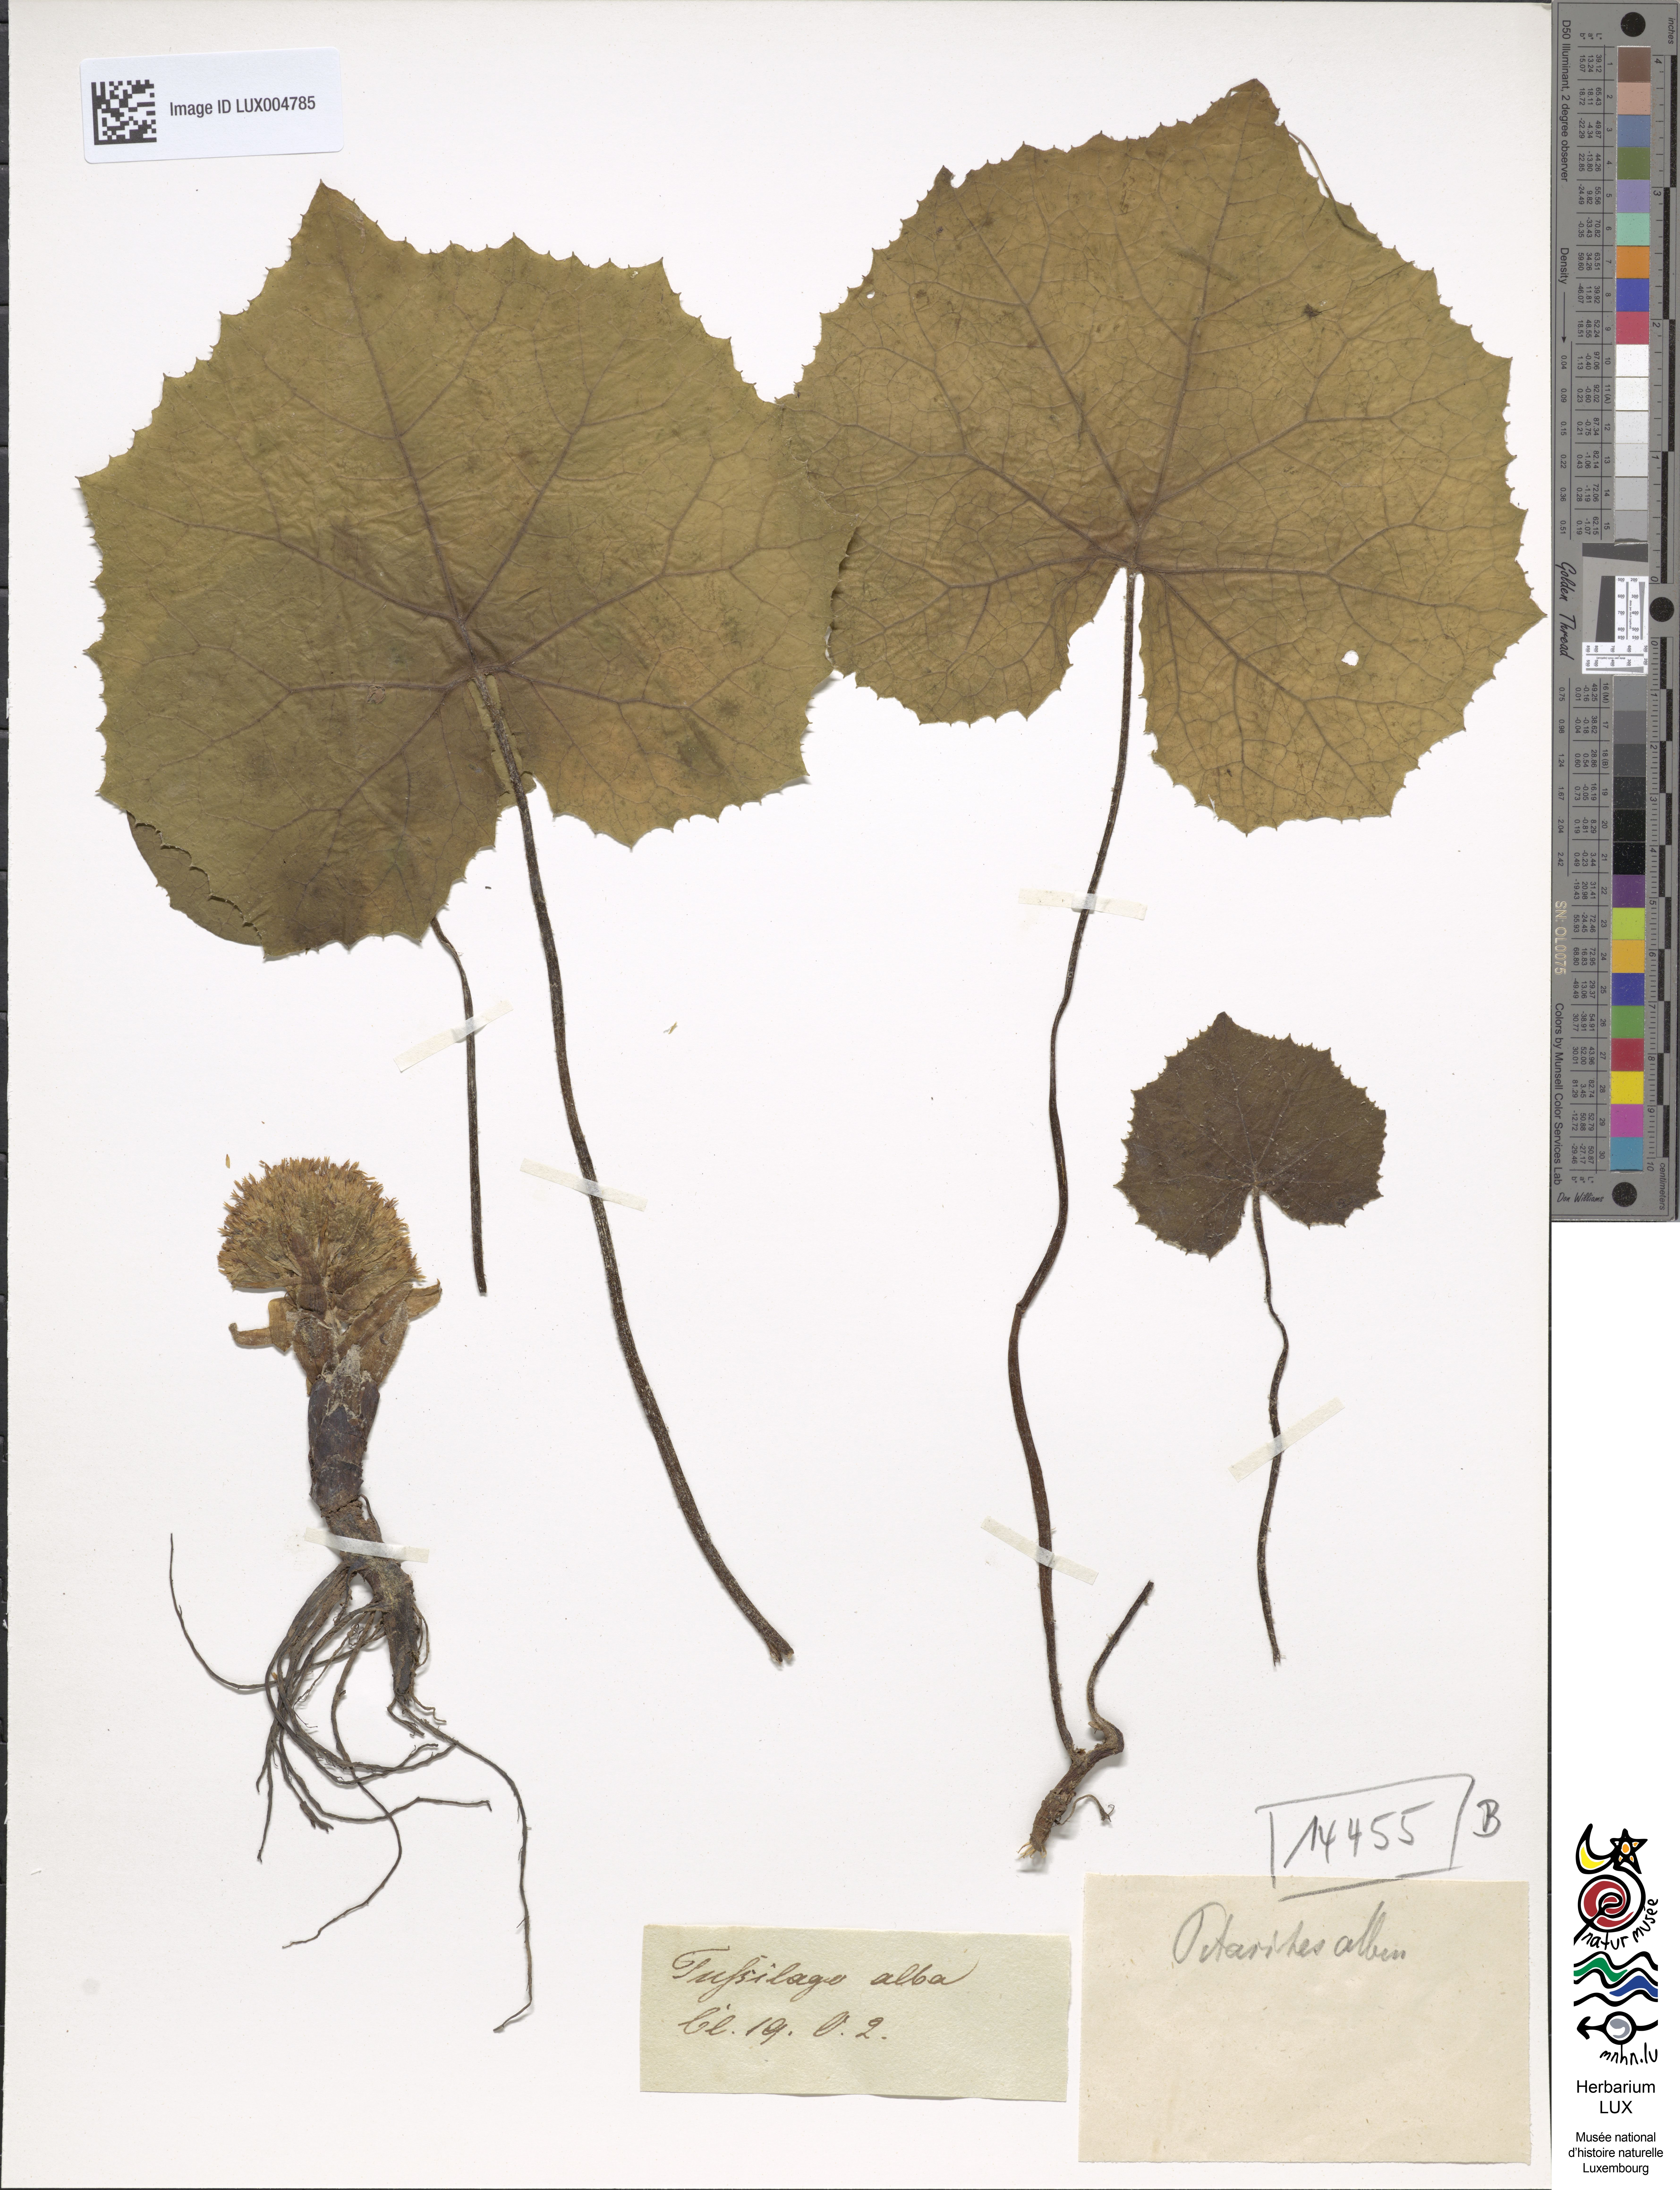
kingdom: Plantae
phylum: Tracheophyta
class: Magnoliopsida
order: Asterales
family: Asteraceae
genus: Petasites
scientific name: Petasites albus
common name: White butterbur
